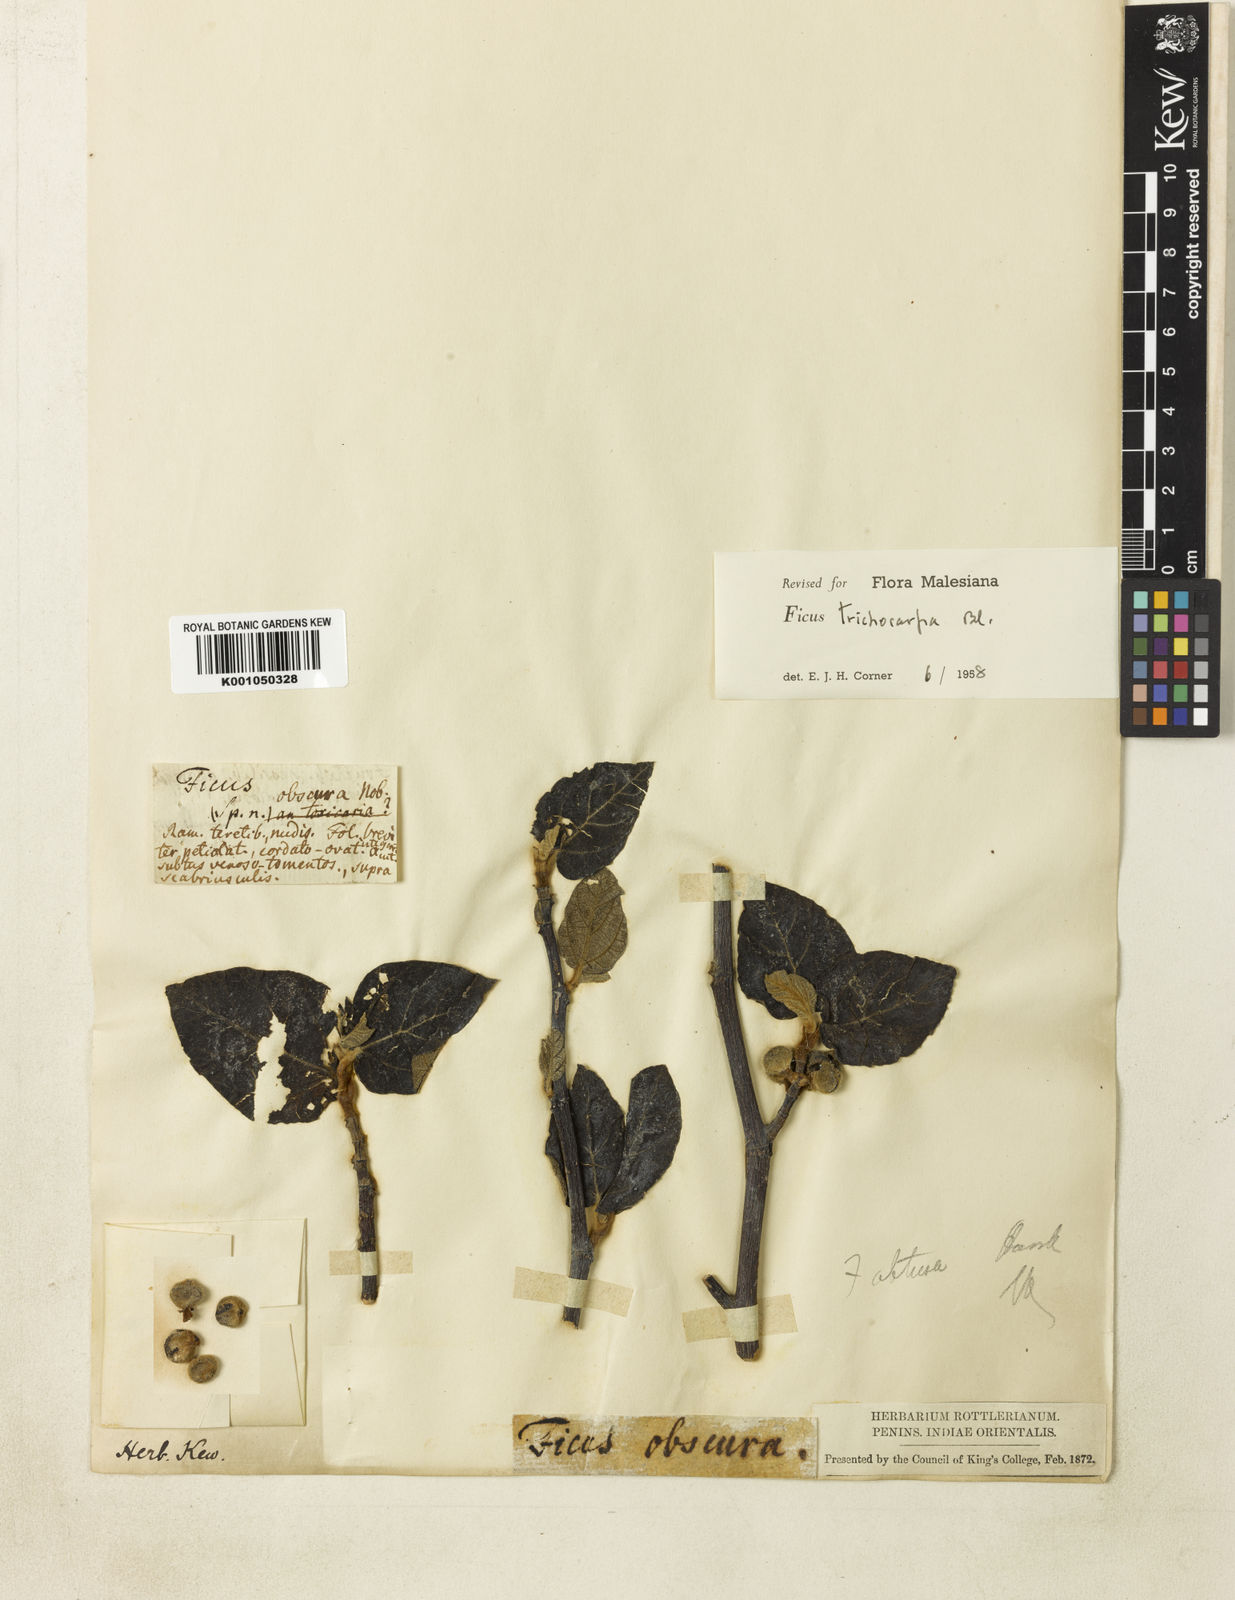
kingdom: Plantae
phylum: Tracheophyta
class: Magnoliopsida
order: Rosales
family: Moraceae
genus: Ficus
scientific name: Ficus trichocarpa
